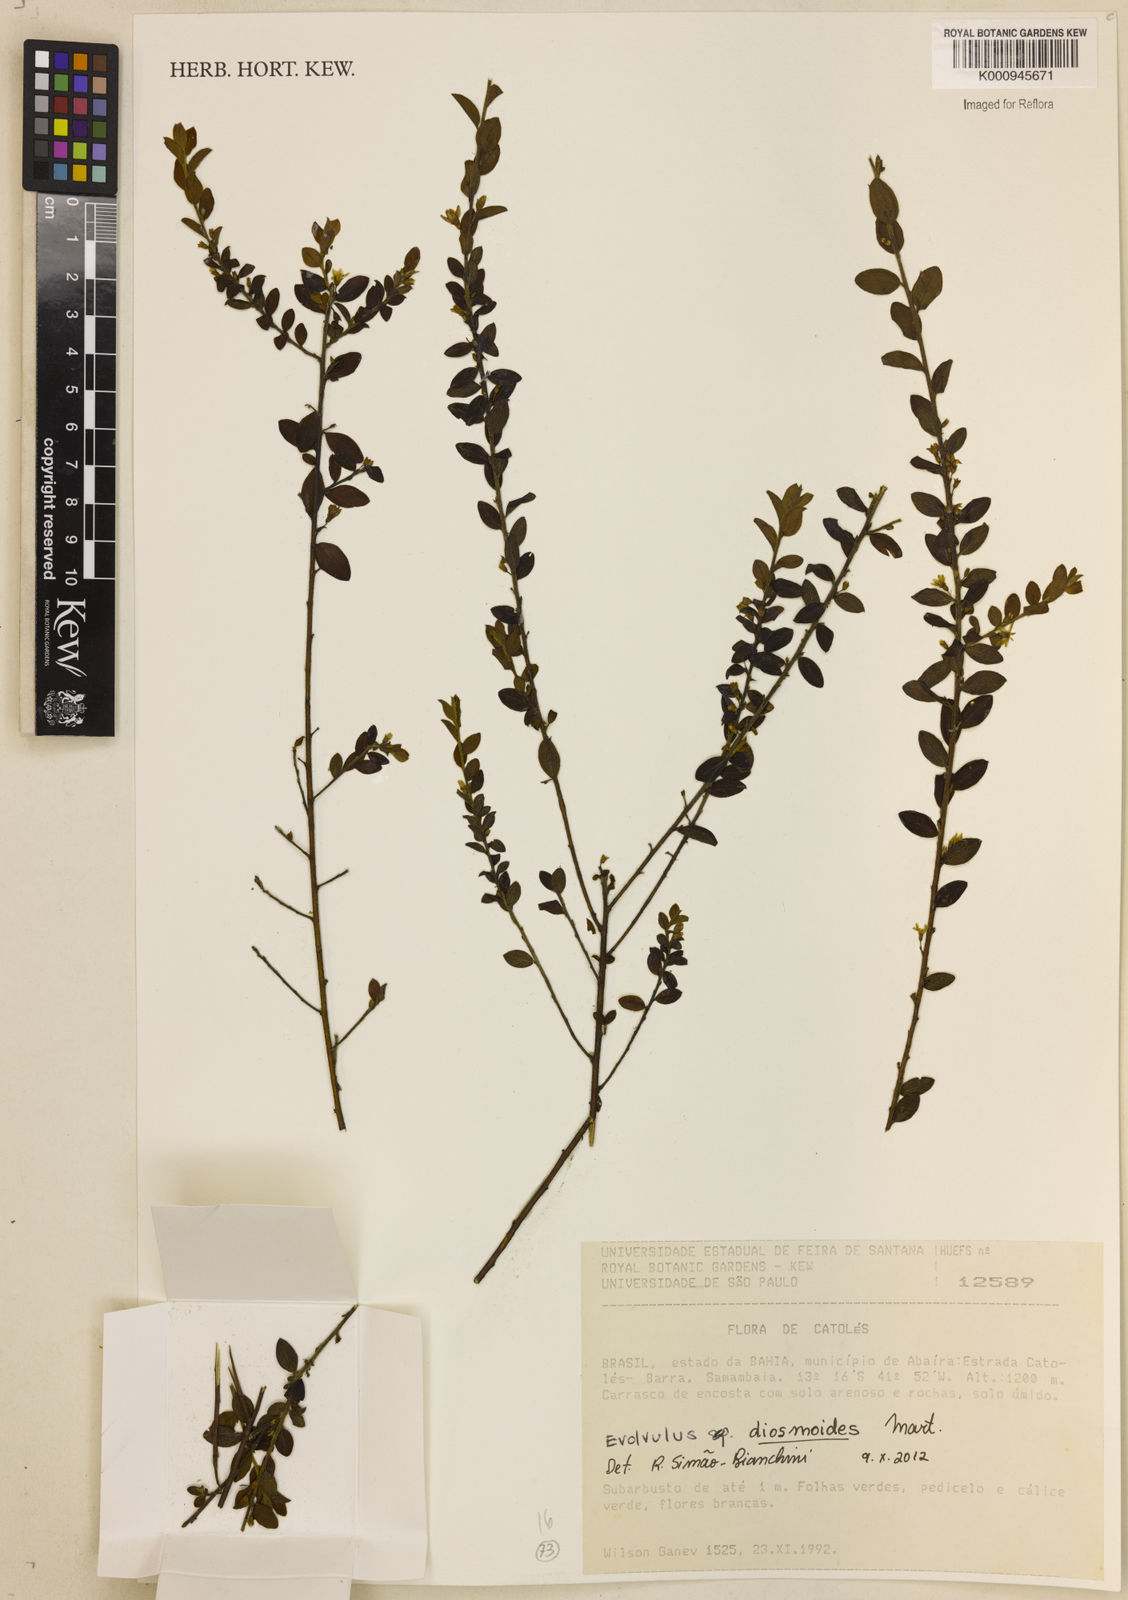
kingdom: Plantae
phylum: Tracheophyta
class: Magnoliopsida
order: Solanales
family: Convolvulaceae
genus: Evolvulus
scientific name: Evolvulus diosmoides
